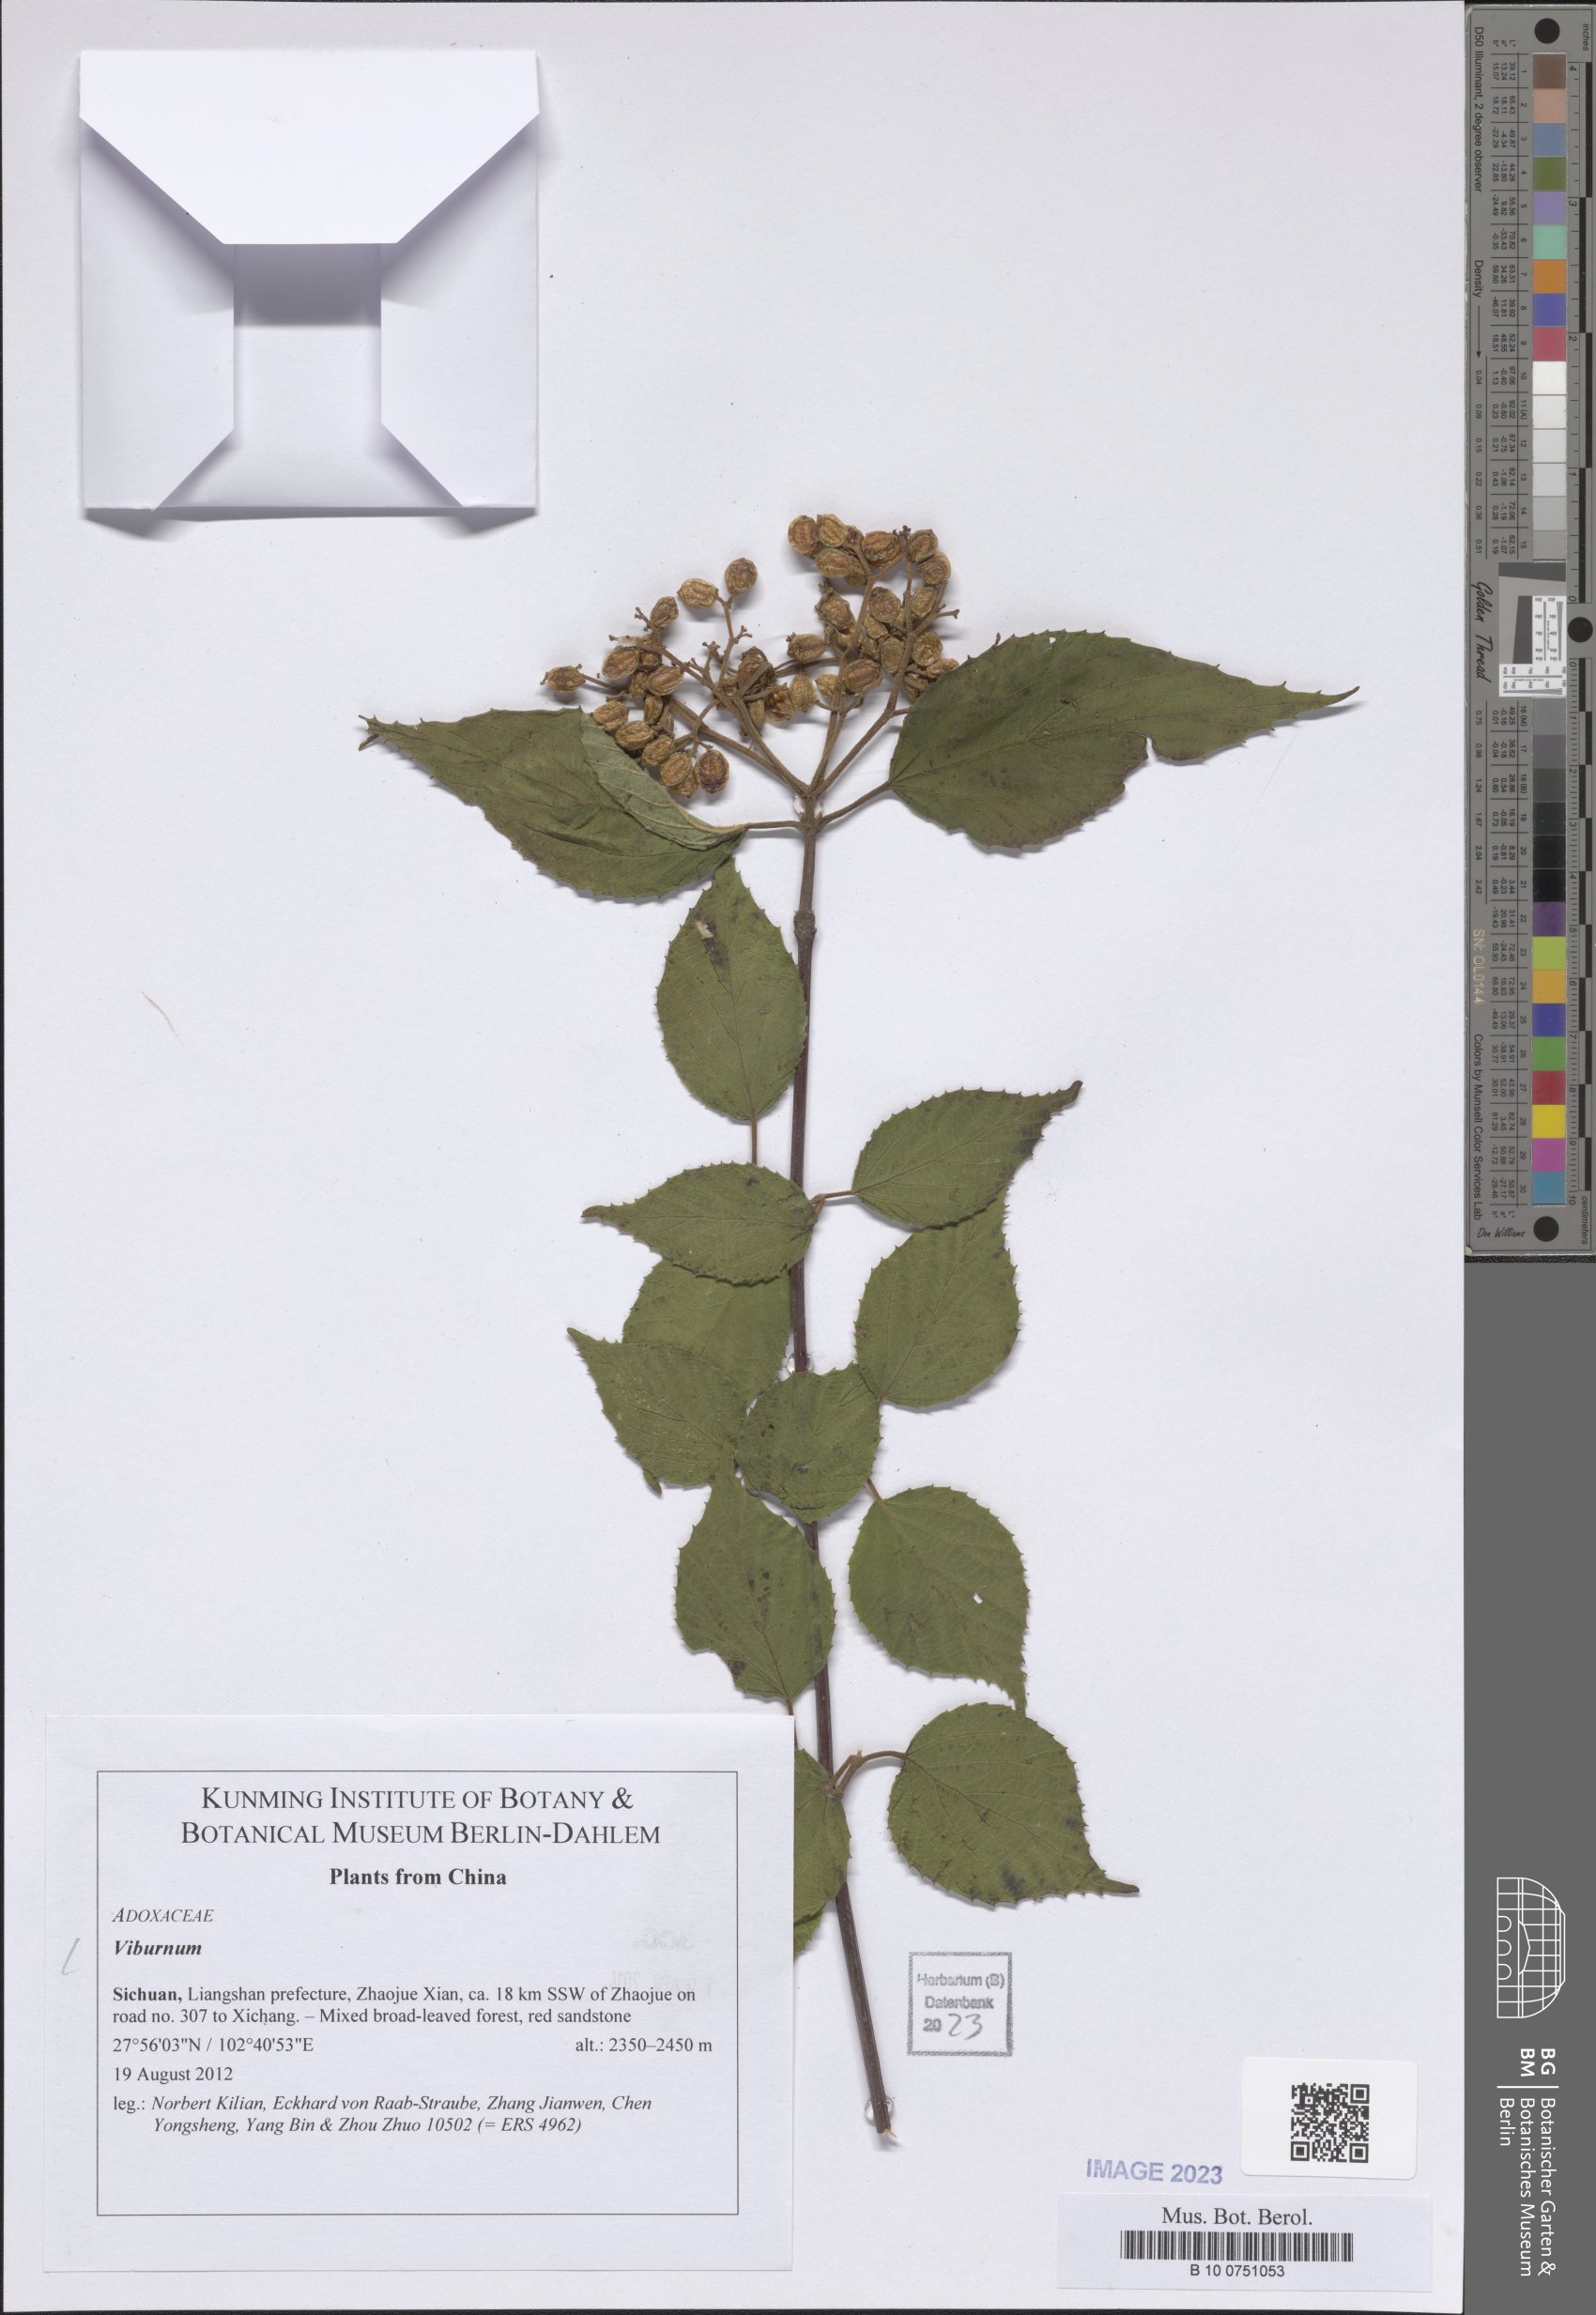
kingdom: Plantae
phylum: Tracheophyta
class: Magnoliopsida
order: Dipsacales
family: Viburnaceae
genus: Viburnum
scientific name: Viburnum
